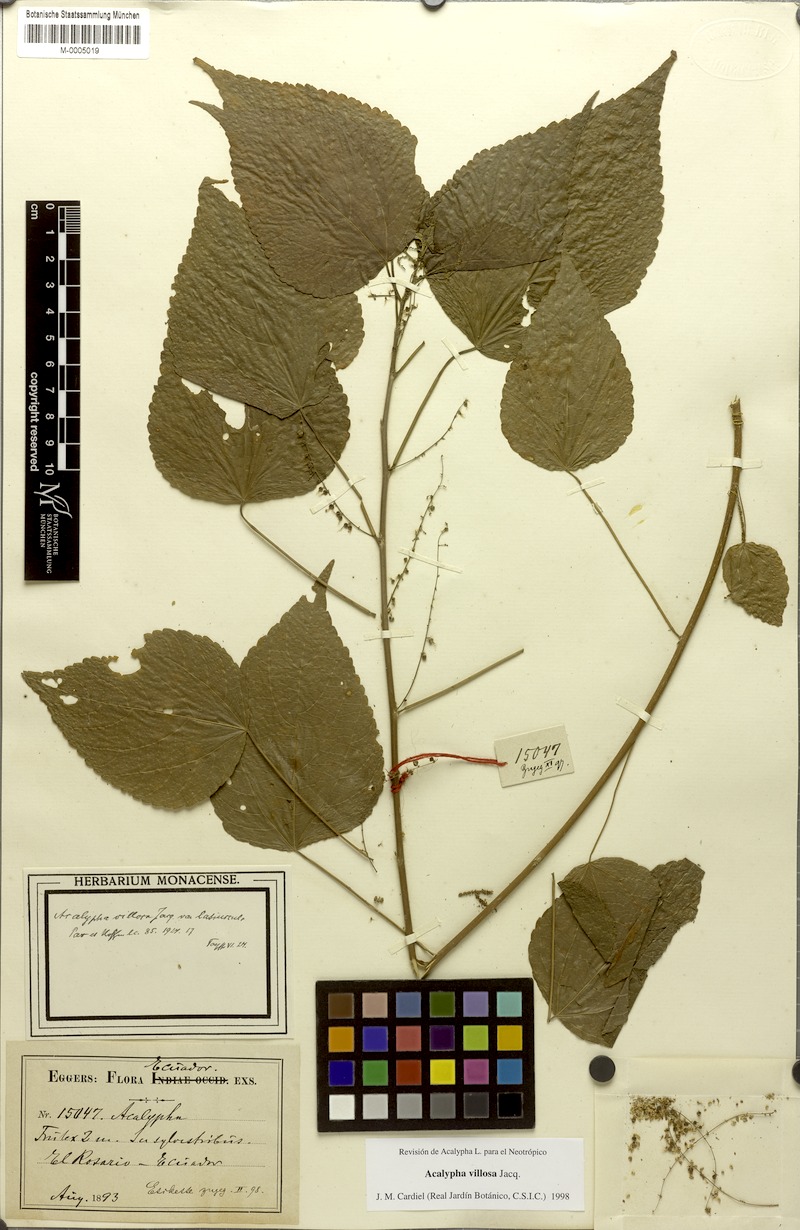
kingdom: Plantae
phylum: Tracheophyta
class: Magnoliopsida
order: Malpighiales
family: Euphorbiaceae
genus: Acalypha
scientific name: Acalypha villosa
